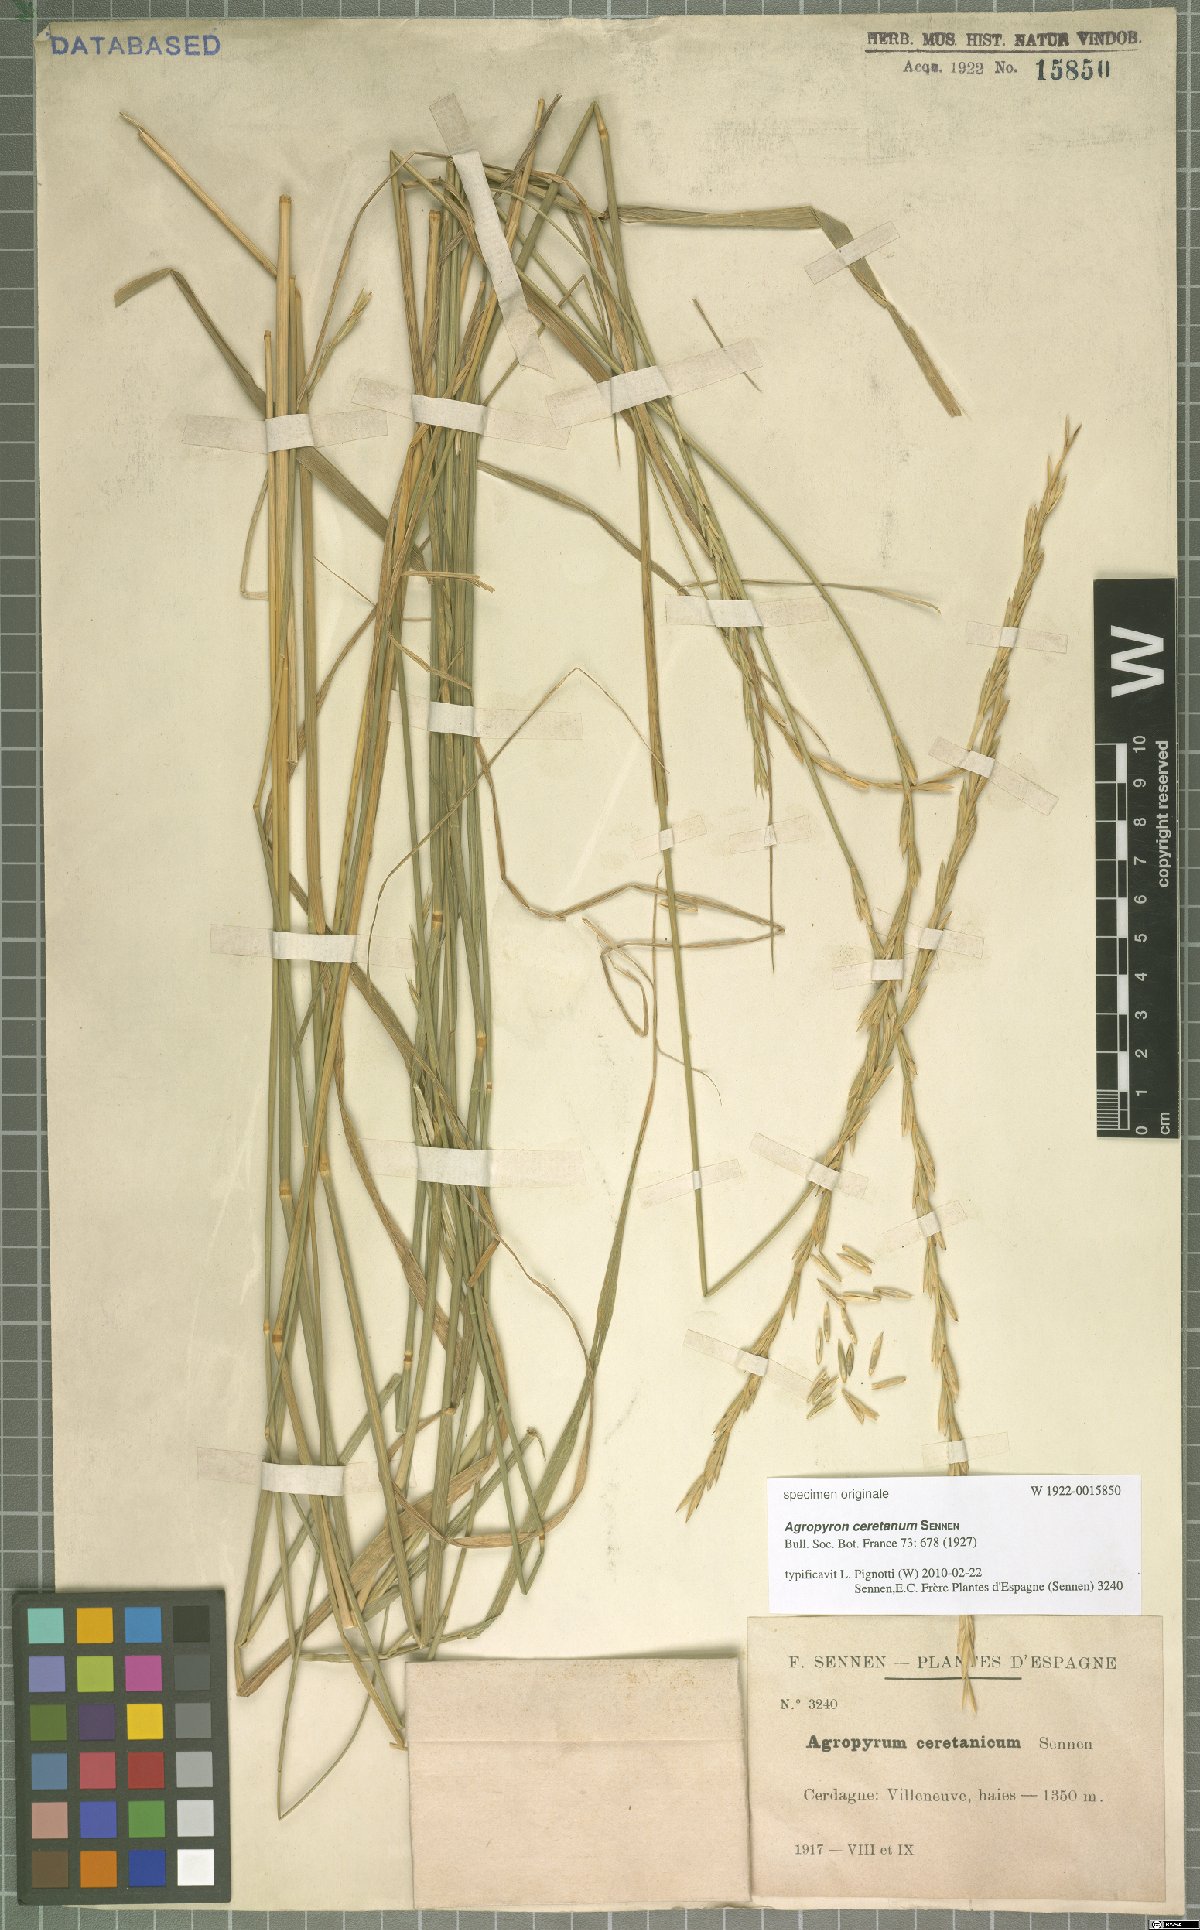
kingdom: Plantae
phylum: Tracheophyta
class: Liliopsida
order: Poales
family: Poaceae
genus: Thinopyrum
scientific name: Thinopyrum intermedium
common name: Intermediate wheatgrass
